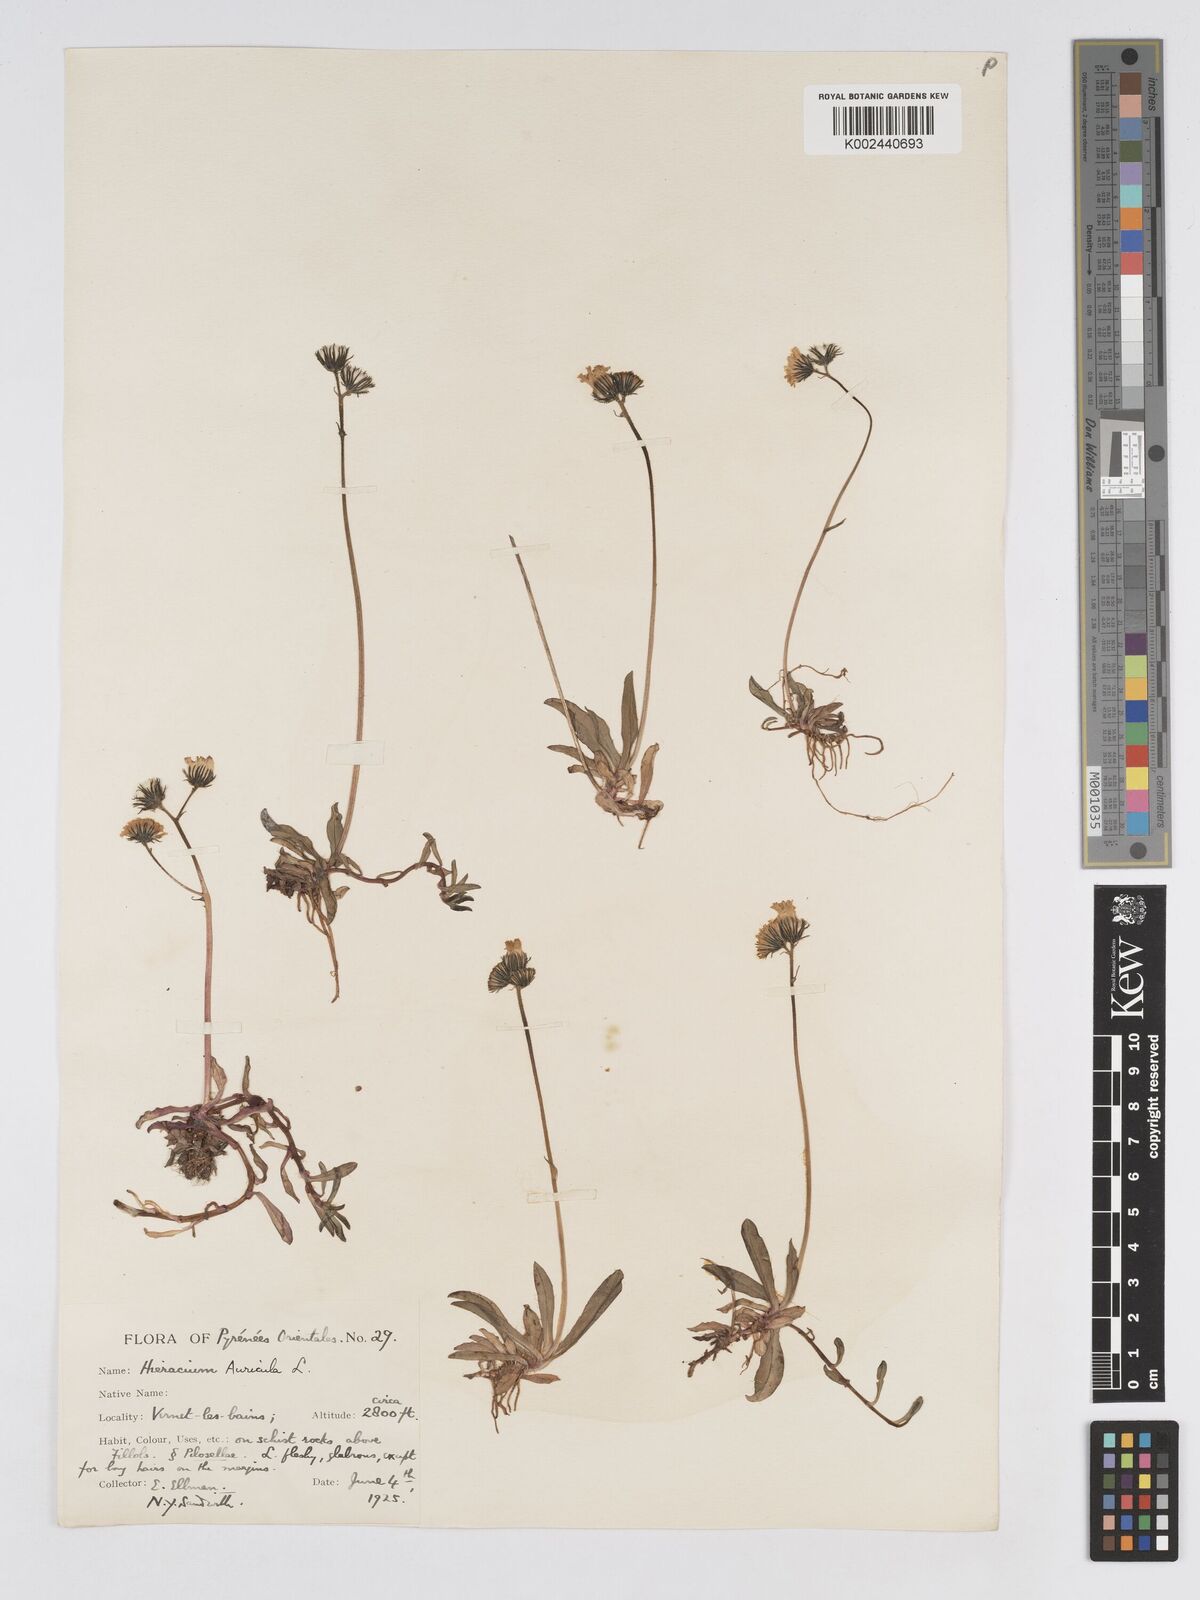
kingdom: Plantae
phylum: Tracheophyta
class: Magnoliopsida
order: Asterales
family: Asteraceae
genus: Pilosella
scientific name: Pilosella floribunda
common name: Glaucous hawkweed
